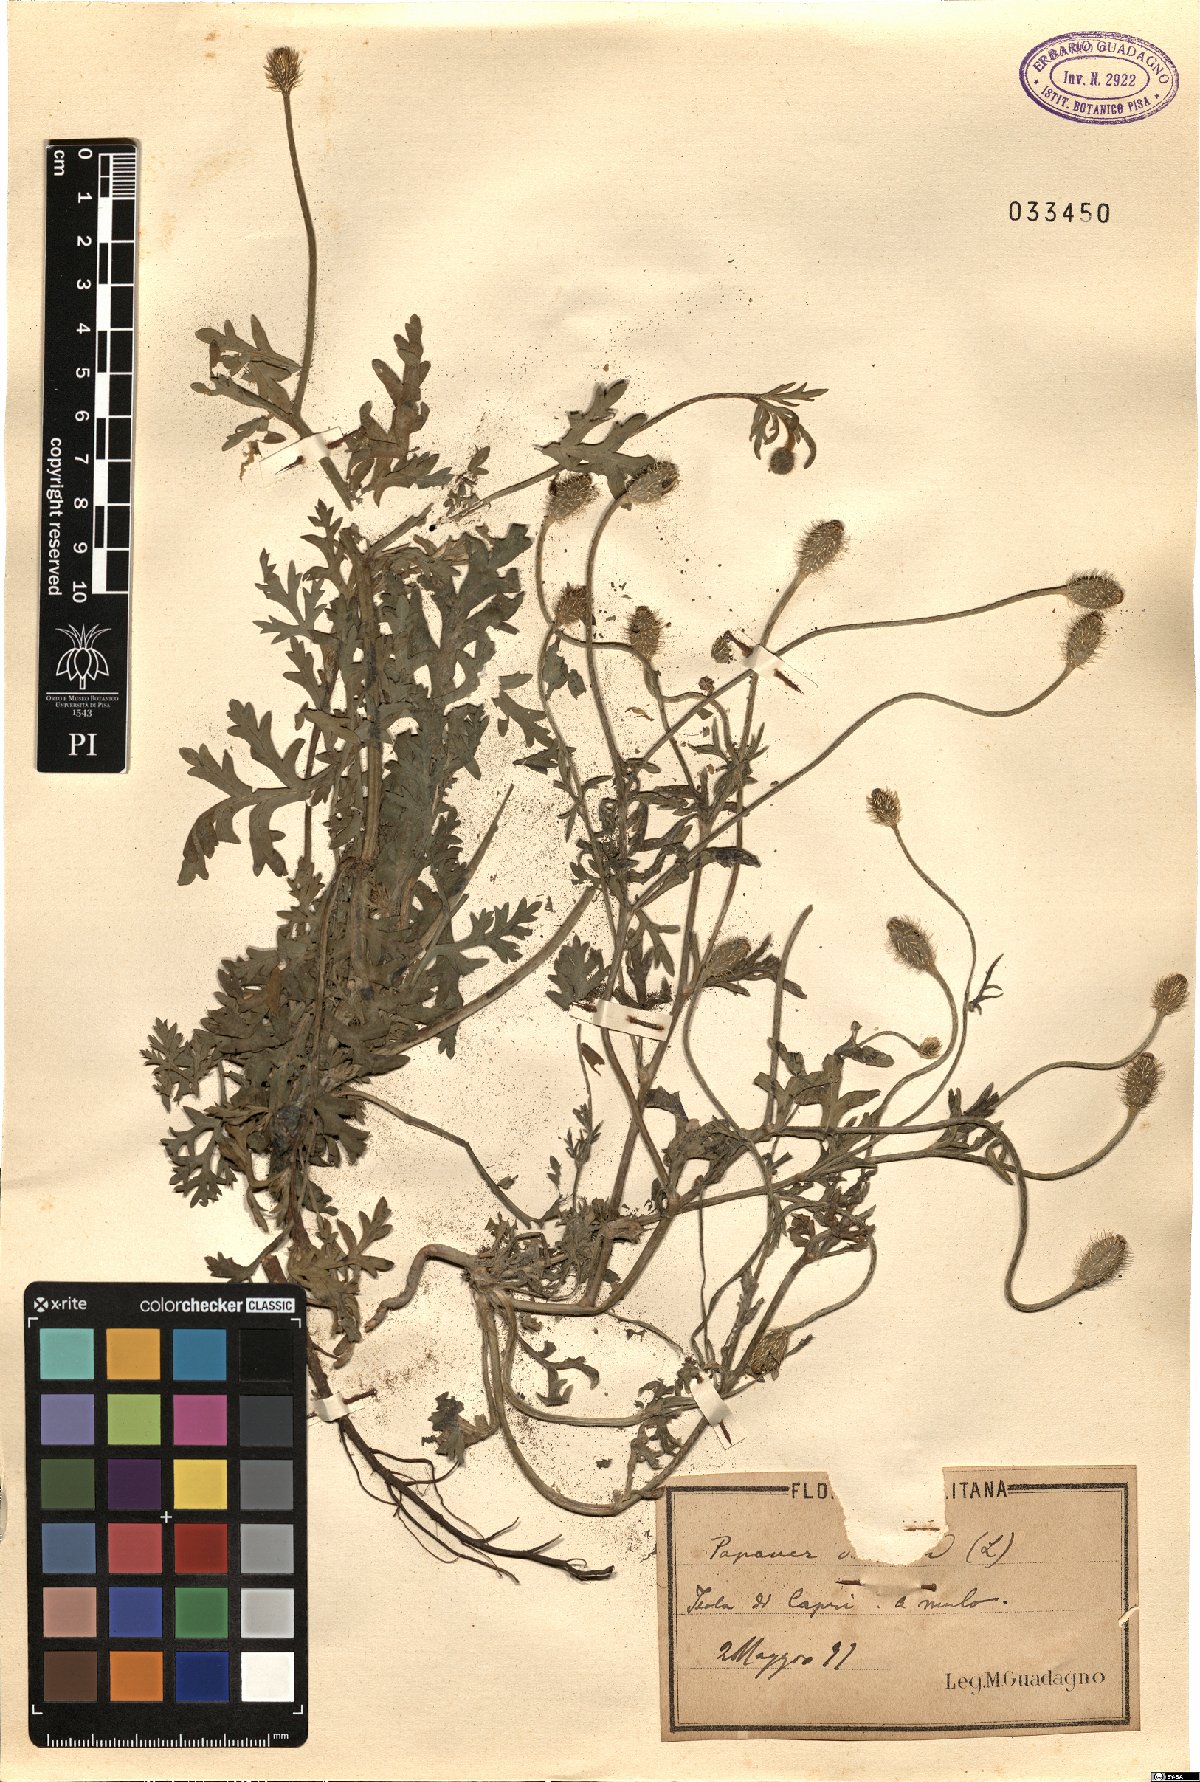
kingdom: Plantae
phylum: Tracheophyta
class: Magnoliopsida
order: Ranunculales
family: Papaveraceae
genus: Papaver
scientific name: Papaver
